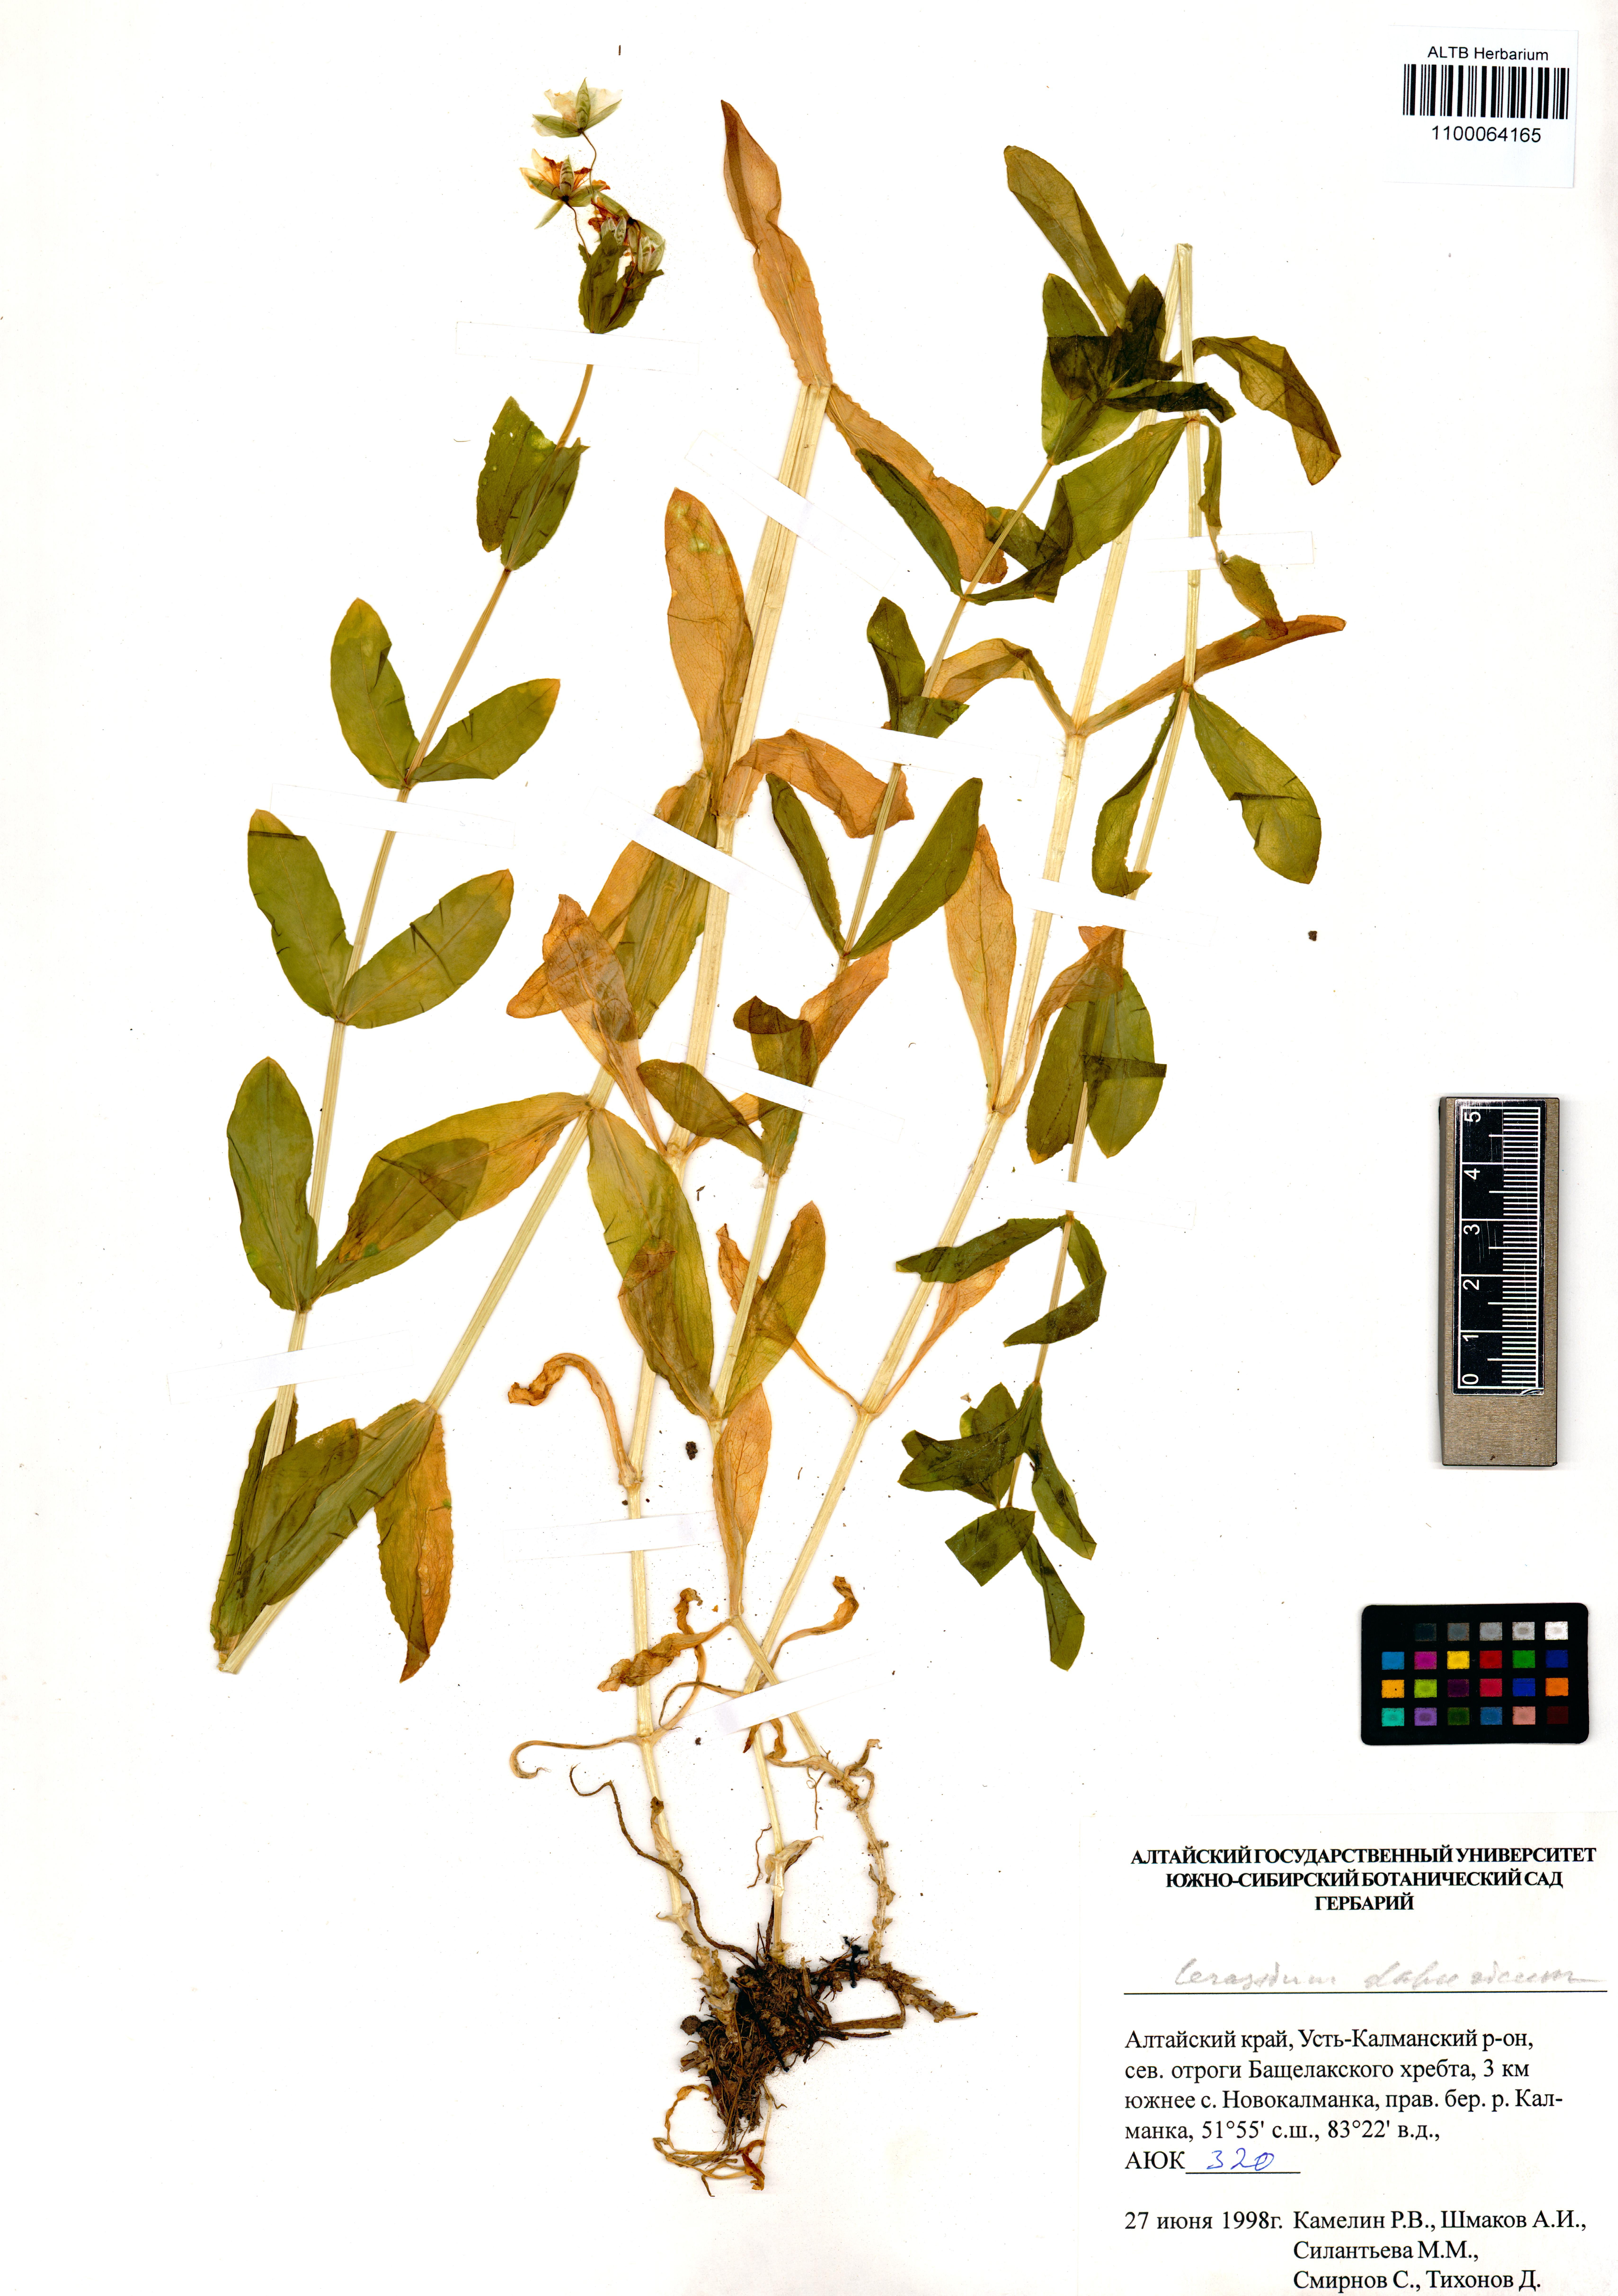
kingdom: Plantae
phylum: Tracheophyta
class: Magnoliopsida
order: Caryophyllales
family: Caryophyllaceae
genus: Dichodon
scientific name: Dichodon davuricum
